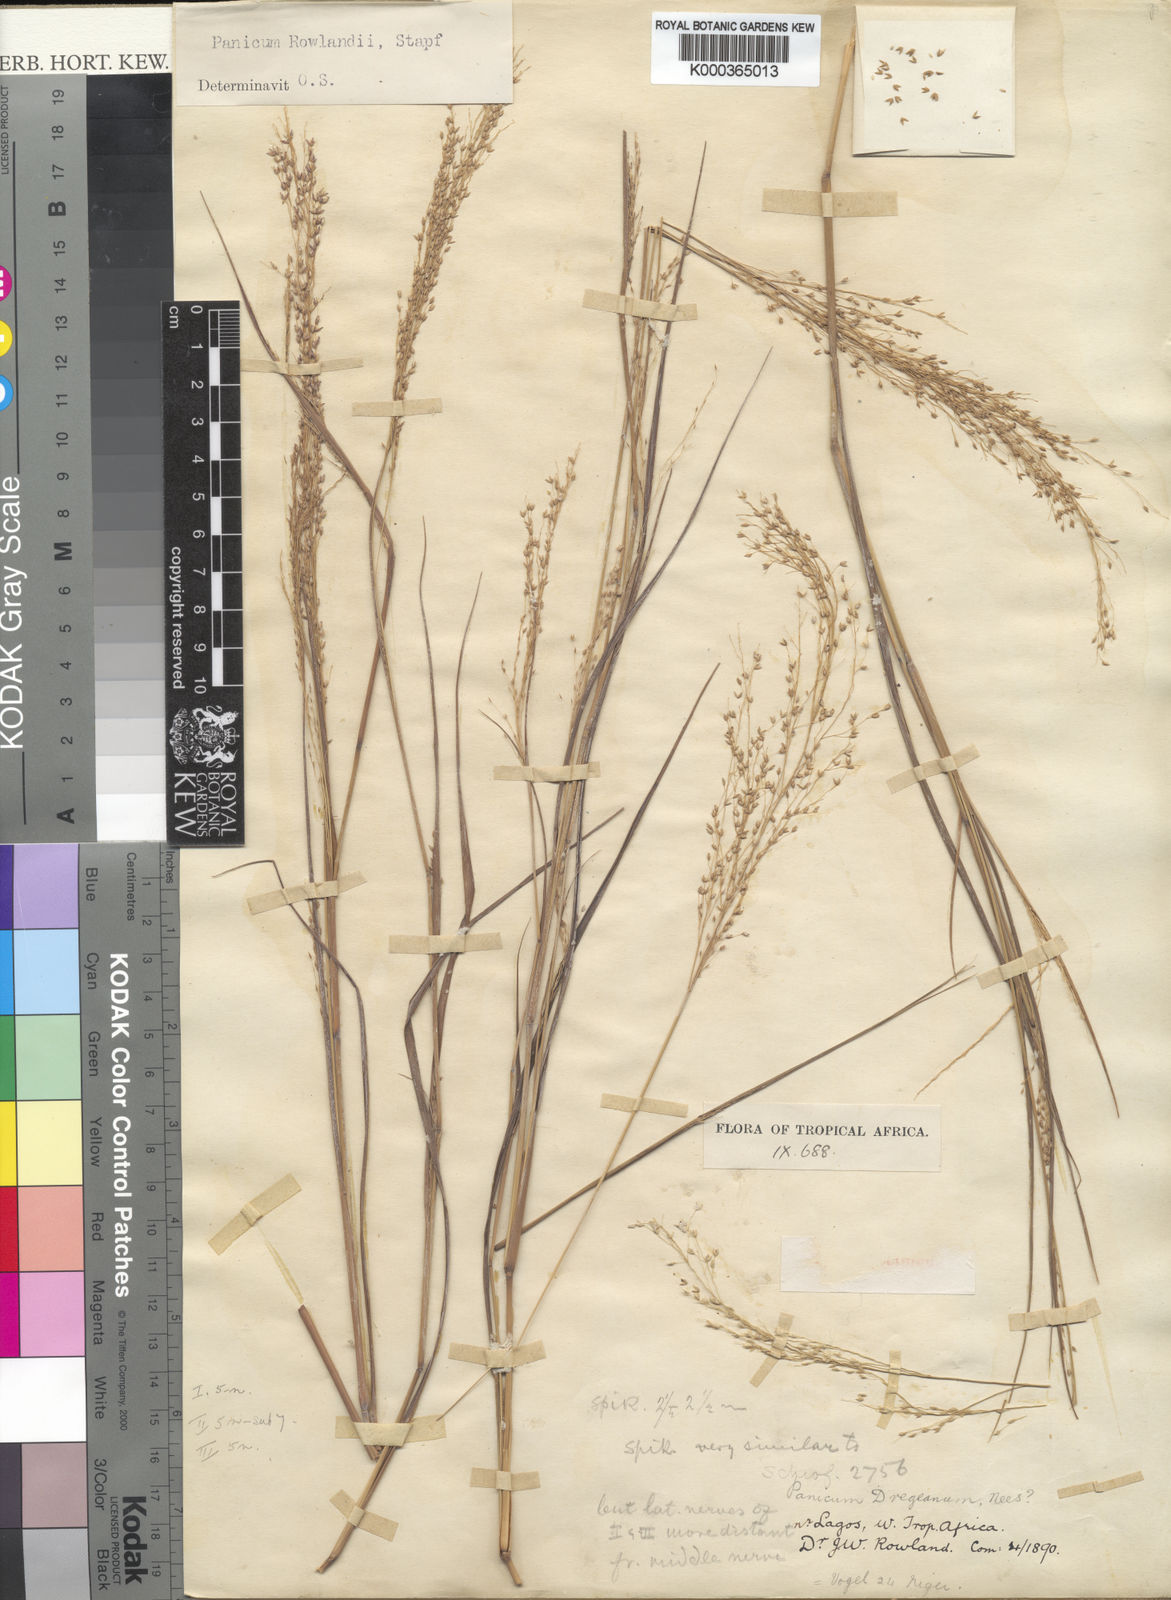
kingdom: Plantae
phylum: Tracheophyta
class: Liliopsida
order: Poales
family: Poaceae
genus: Panicum
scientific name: Panicum fluviicola
